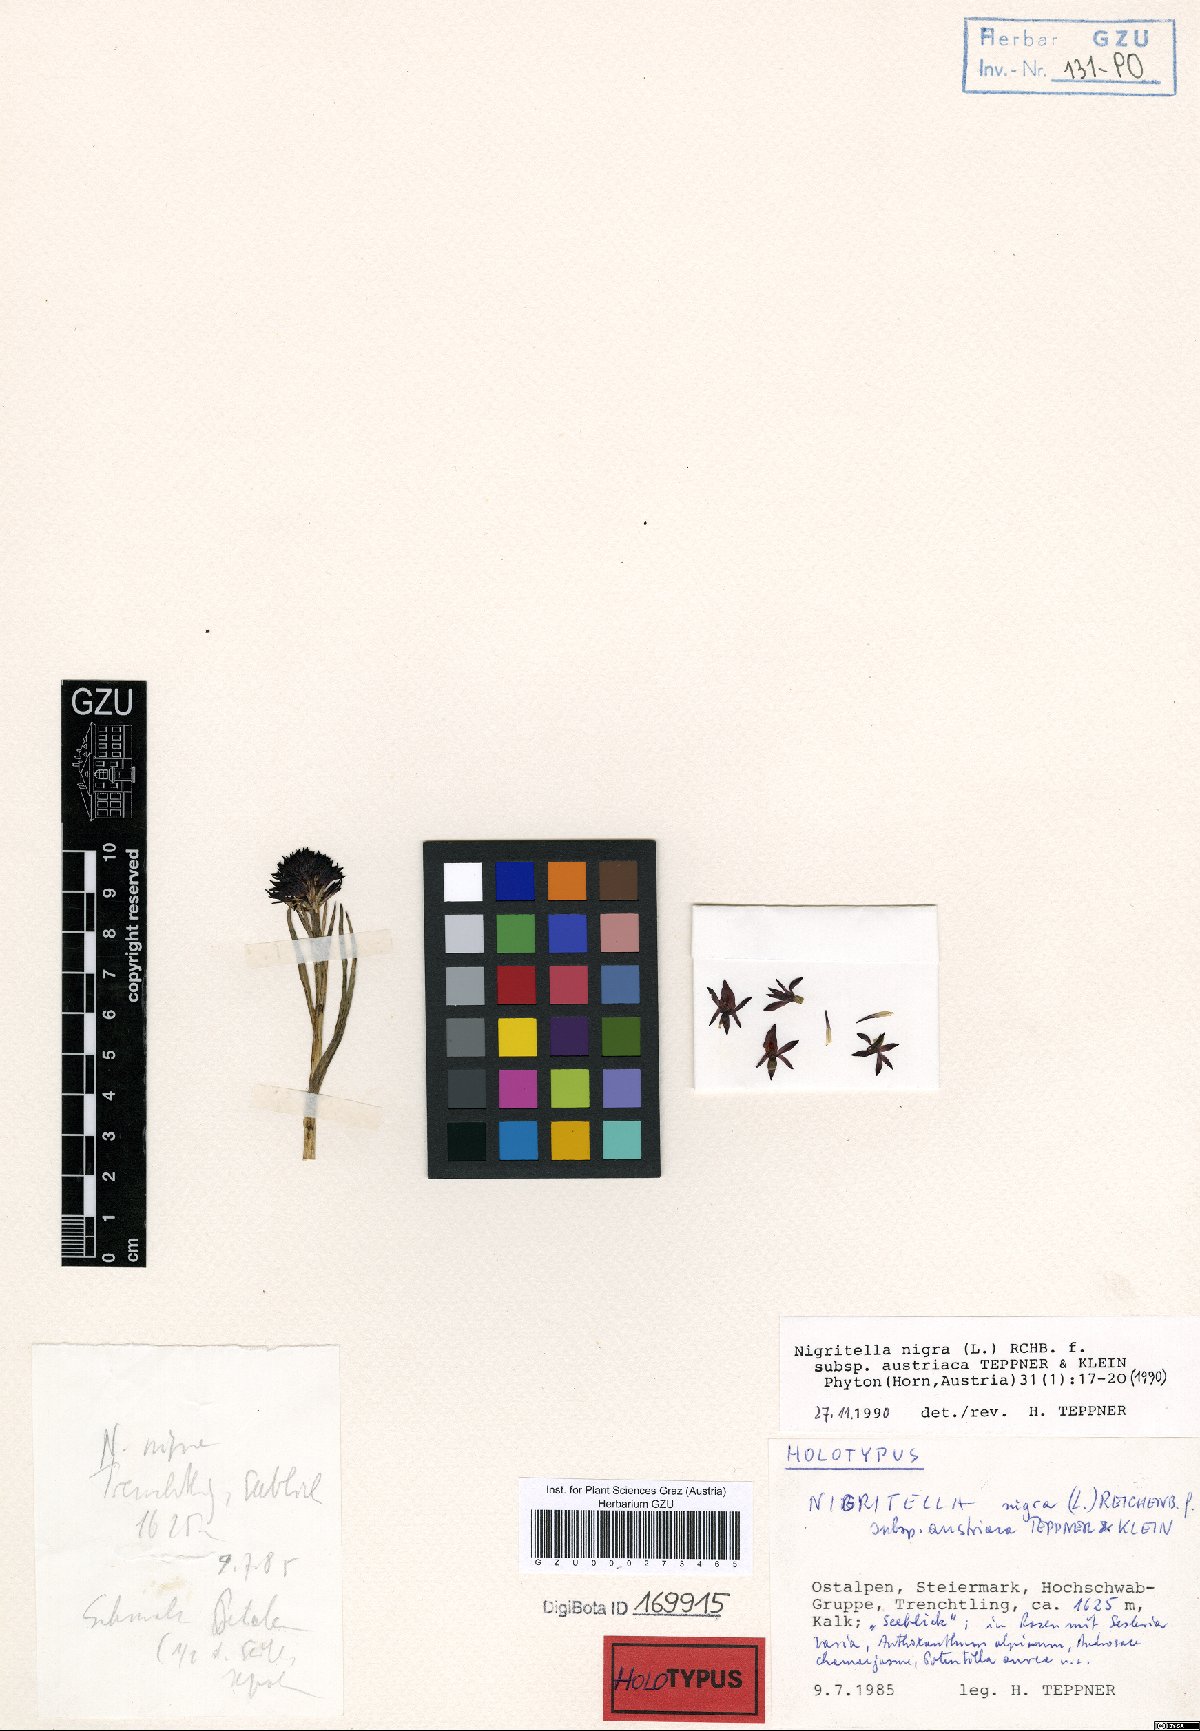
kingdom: Plantae
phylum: Tracheophyta
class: Liliopsida
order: Asparagales
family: Orchidaceae
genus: Gymnadenia
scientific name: Gymnadenia austriaca
